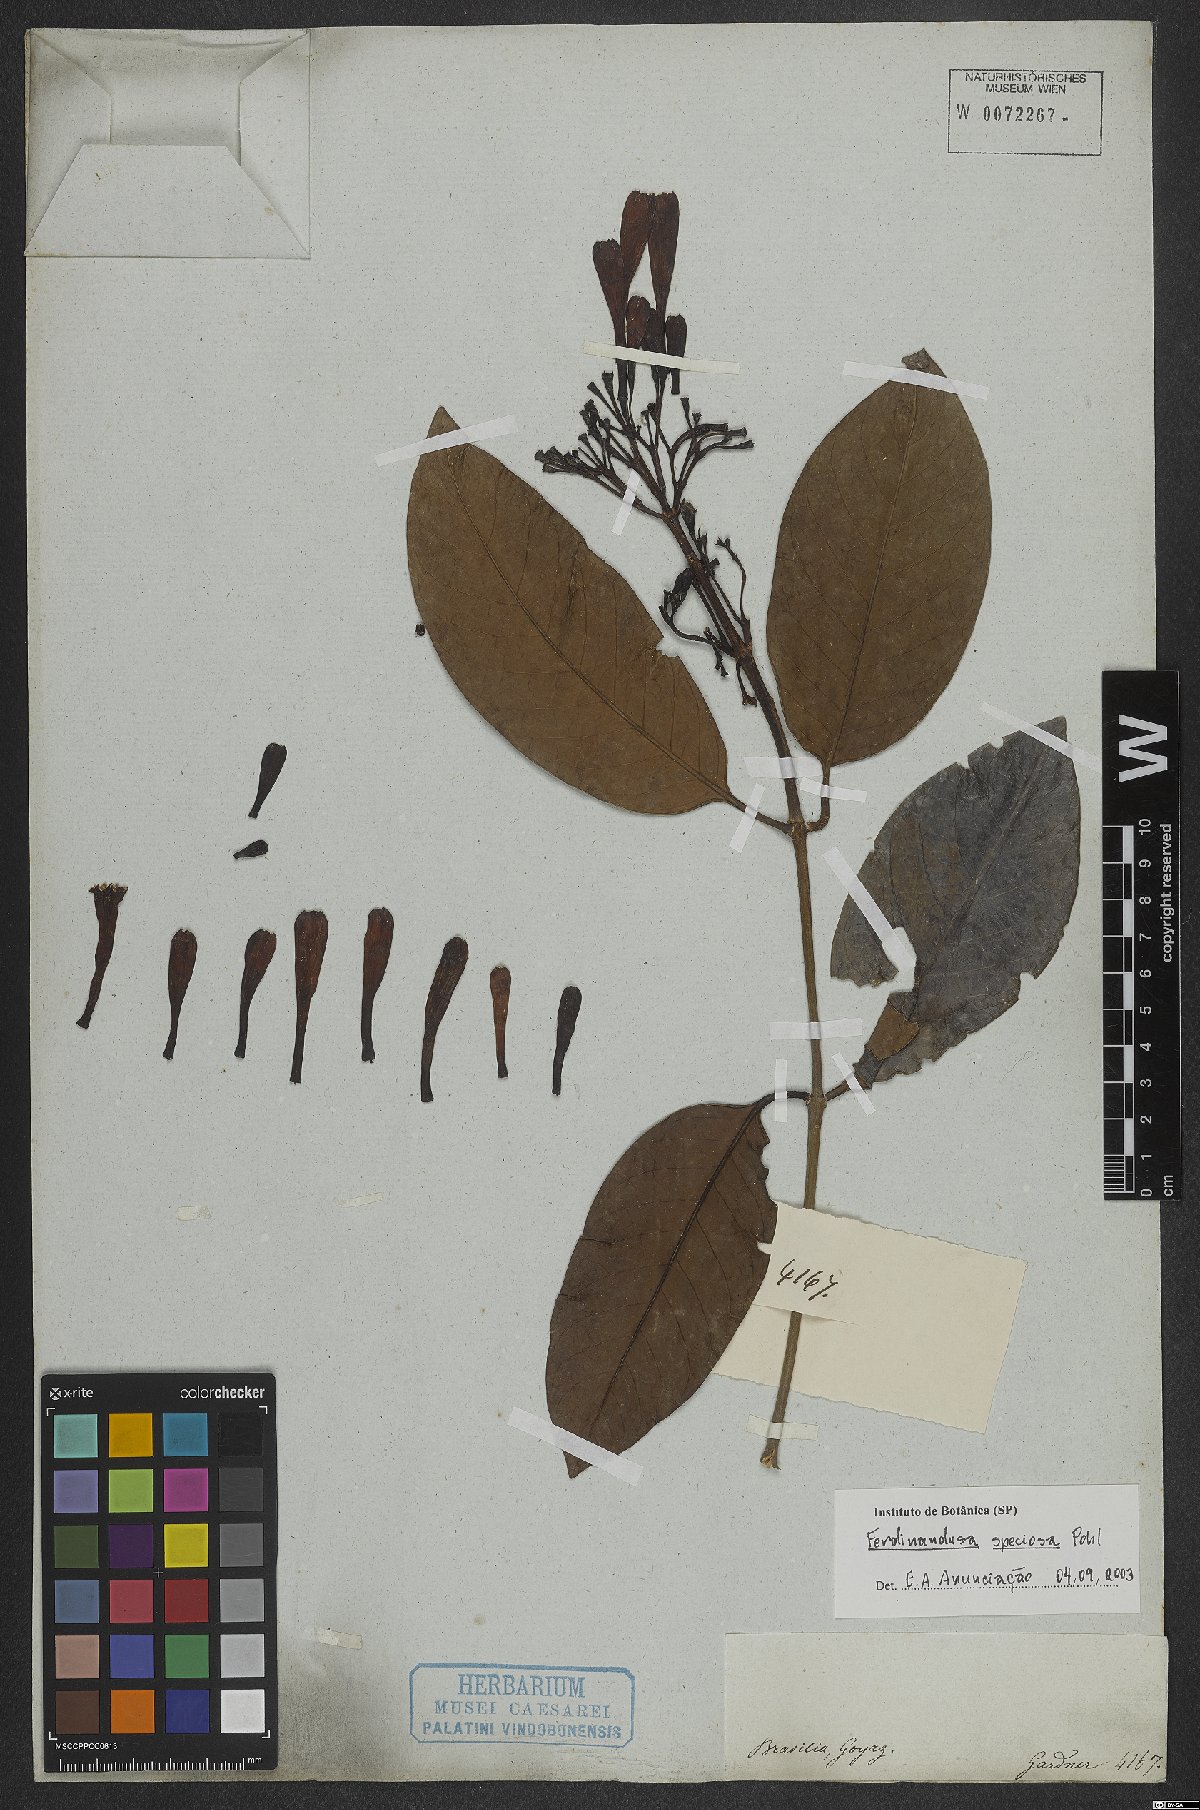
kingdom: Plantae
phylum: Tracheophyta
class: Magnoliopsida
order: Gentianales
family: Rubiaceae
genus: Ferdinandusa
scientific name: Ferdinandusa speciosa
